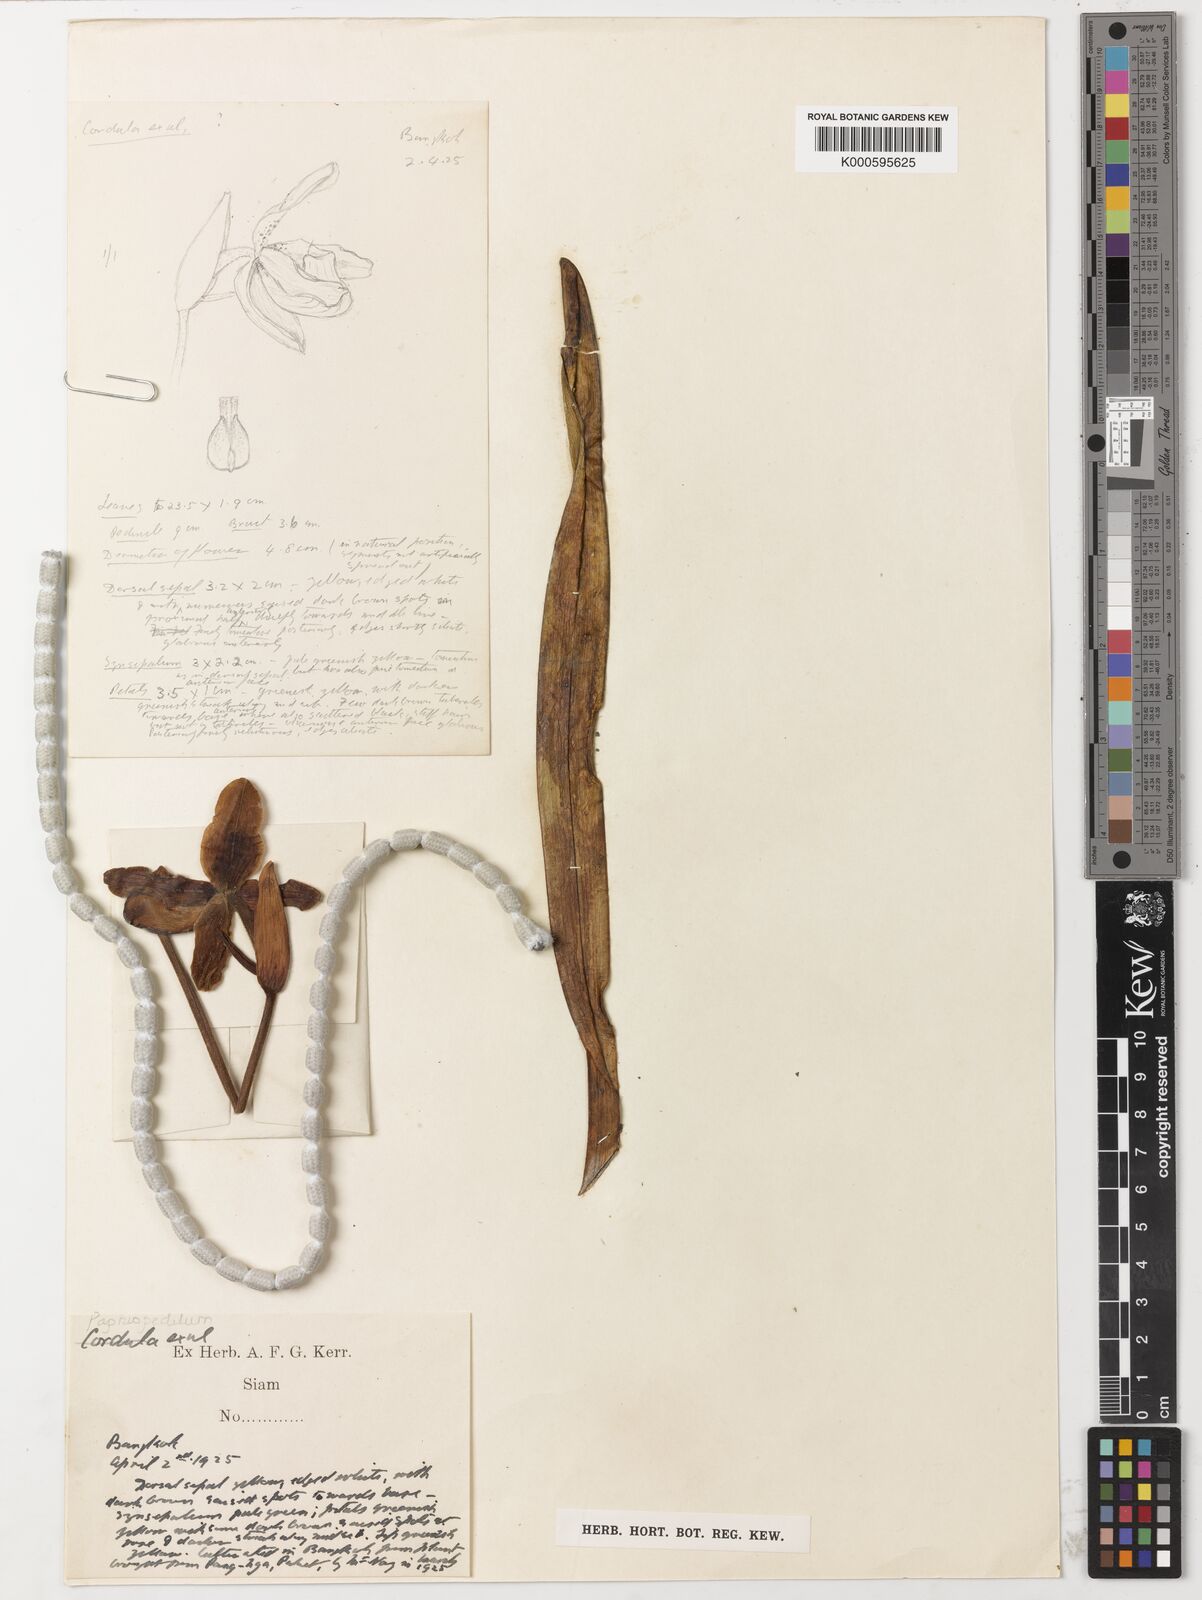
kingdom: Plantae
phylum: Tracheophyta
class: Liliopsida
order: Asparagales
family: Orchidaceae
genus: Paphiopedilum
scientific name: Paphiopedilum exul
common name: Excluded paphiopedilum
